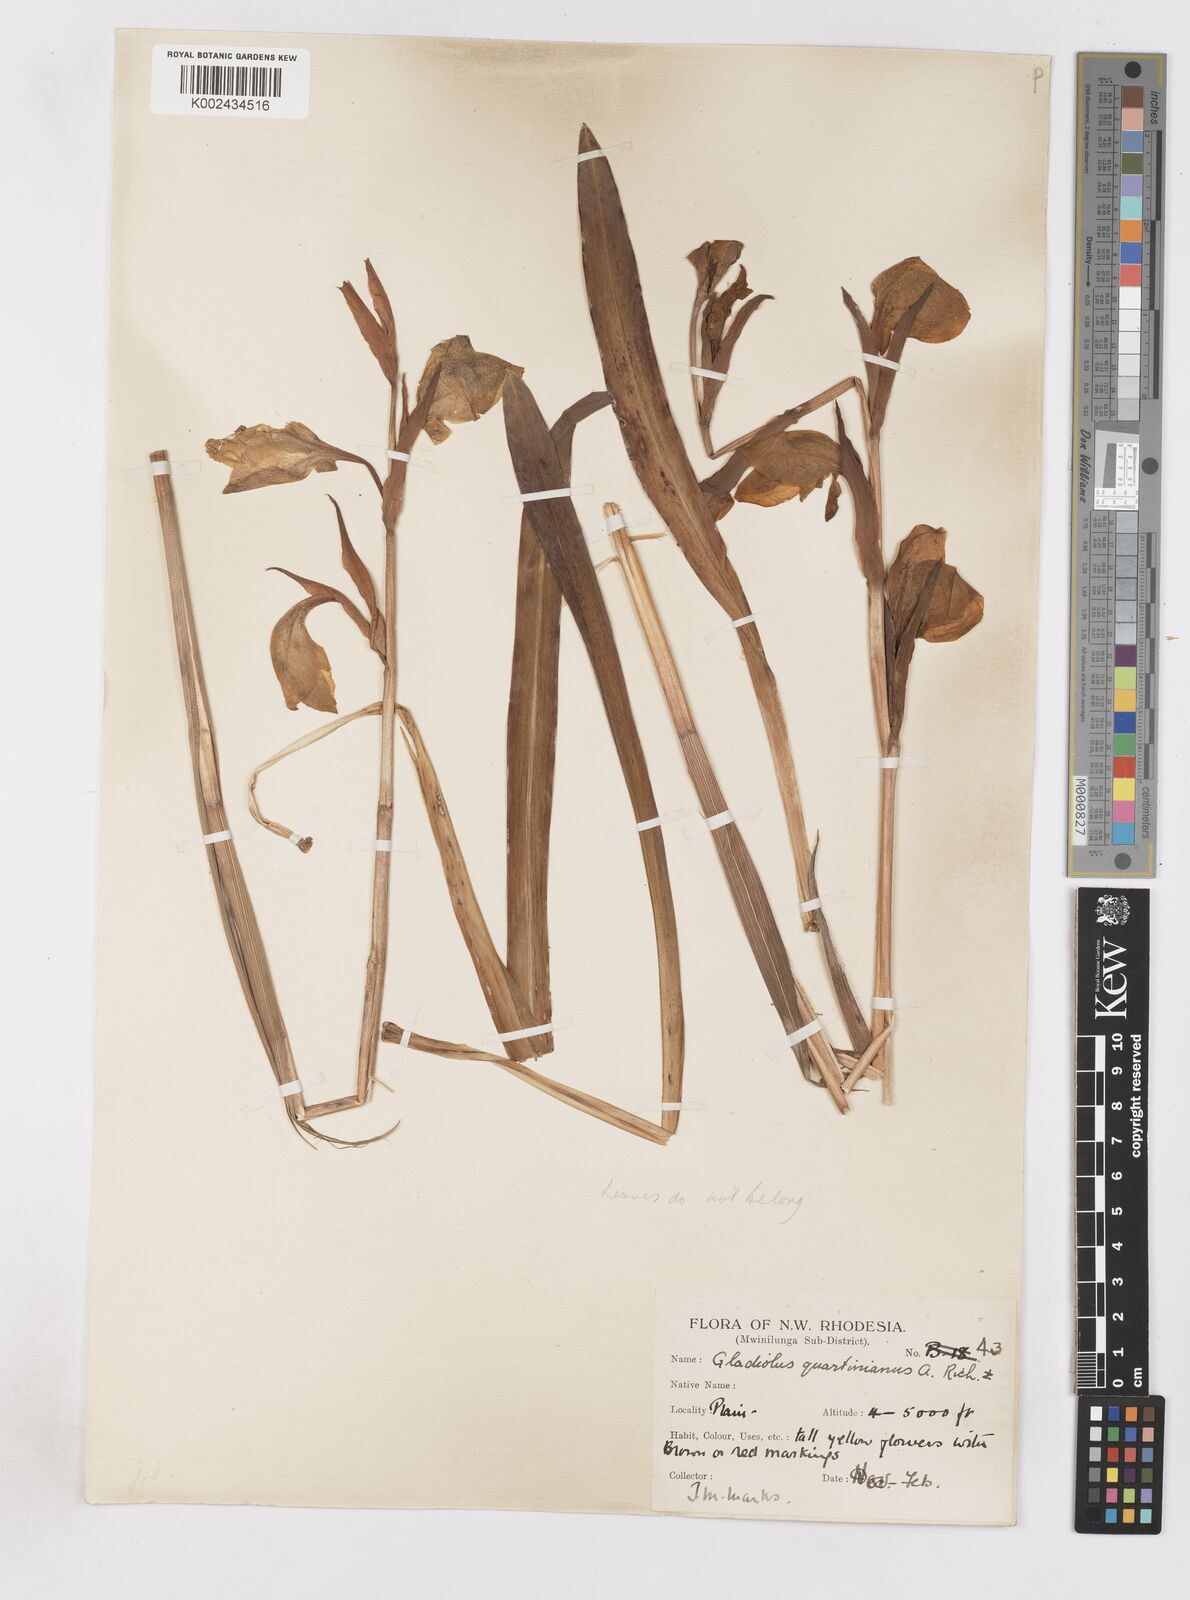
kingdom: Plantae
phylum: Tracheophyta
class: Liliopsida
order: Asparagales
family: Iridaceae
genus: Gladiolus
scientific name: Gladiolus dalenii
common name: Cornflag
